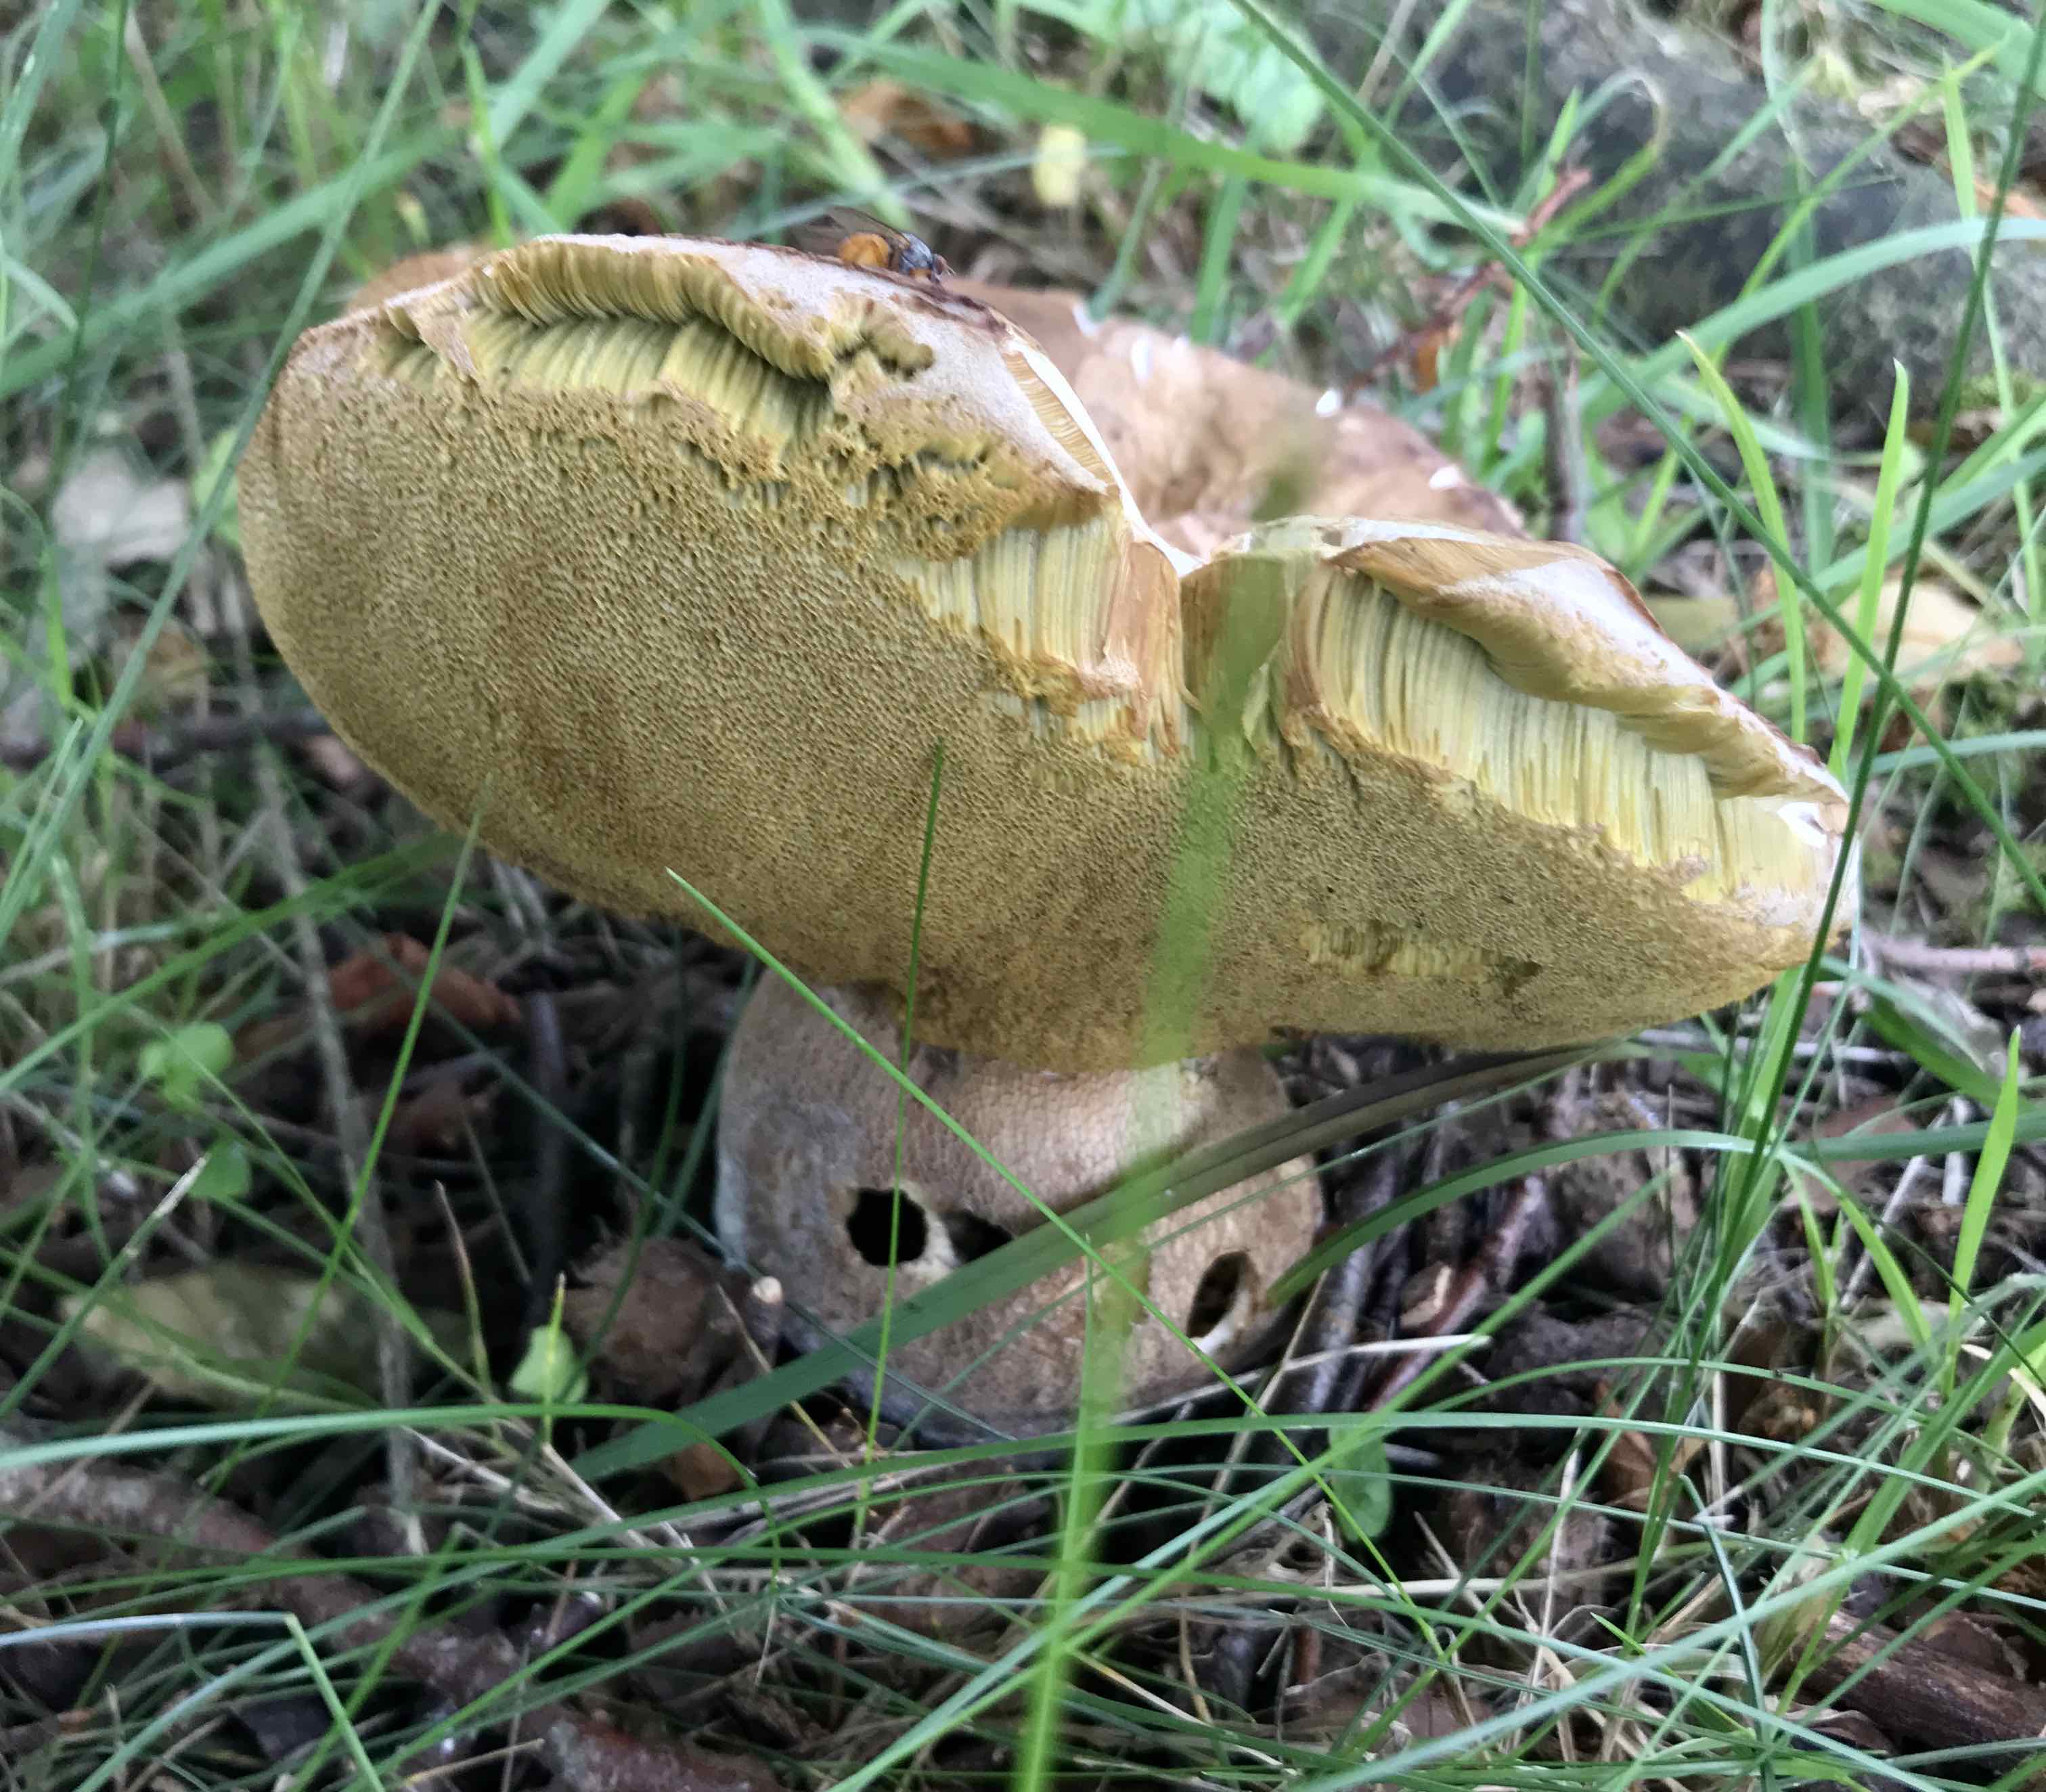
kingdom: Fungi
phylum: Basidiomycota
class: Agaricomycetes
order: Boletales
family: Boletaceae
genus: Boletus
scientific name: Boletus reticulatus
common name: sommer-rørhat
